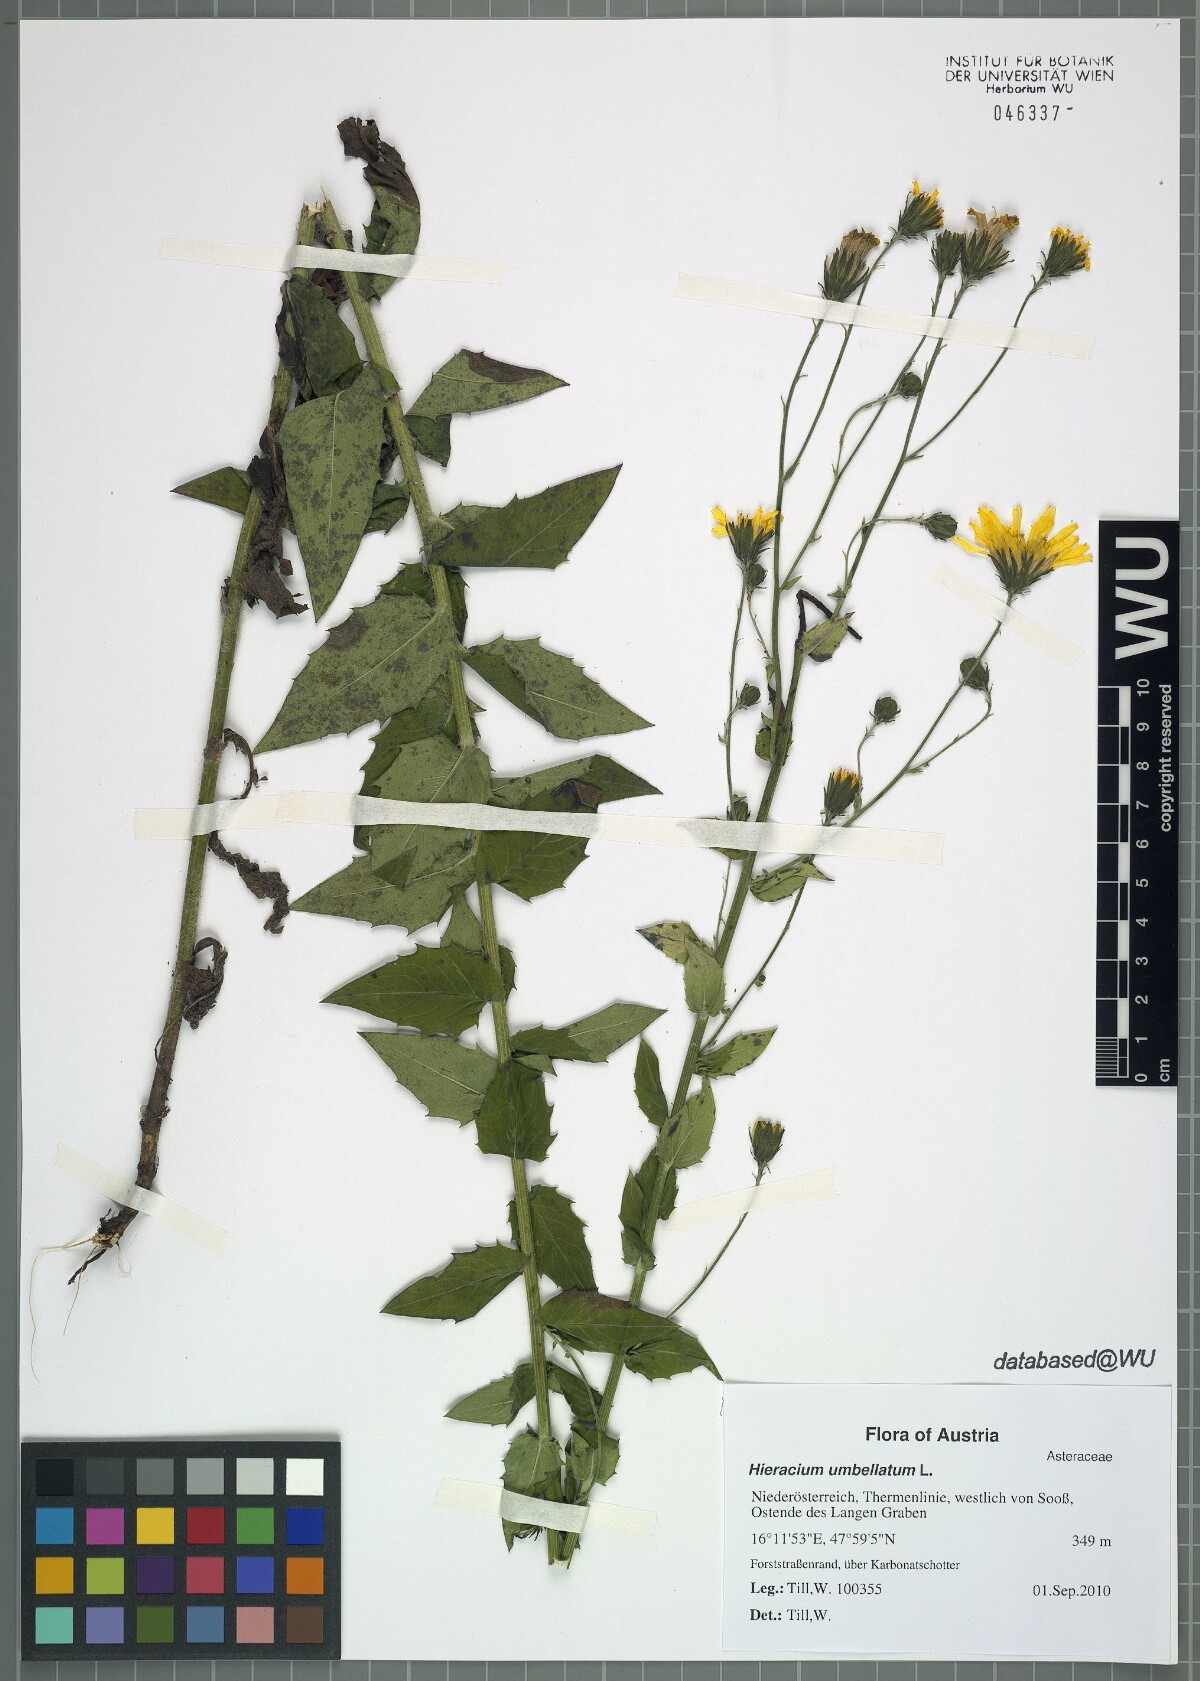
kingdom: Plantae
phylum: Tracheophyta
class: Magnoliopsida
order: Asterales
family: Asteraceae
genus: Hieracium
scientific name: Hieracium sabaudum
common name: New england hawkweed
